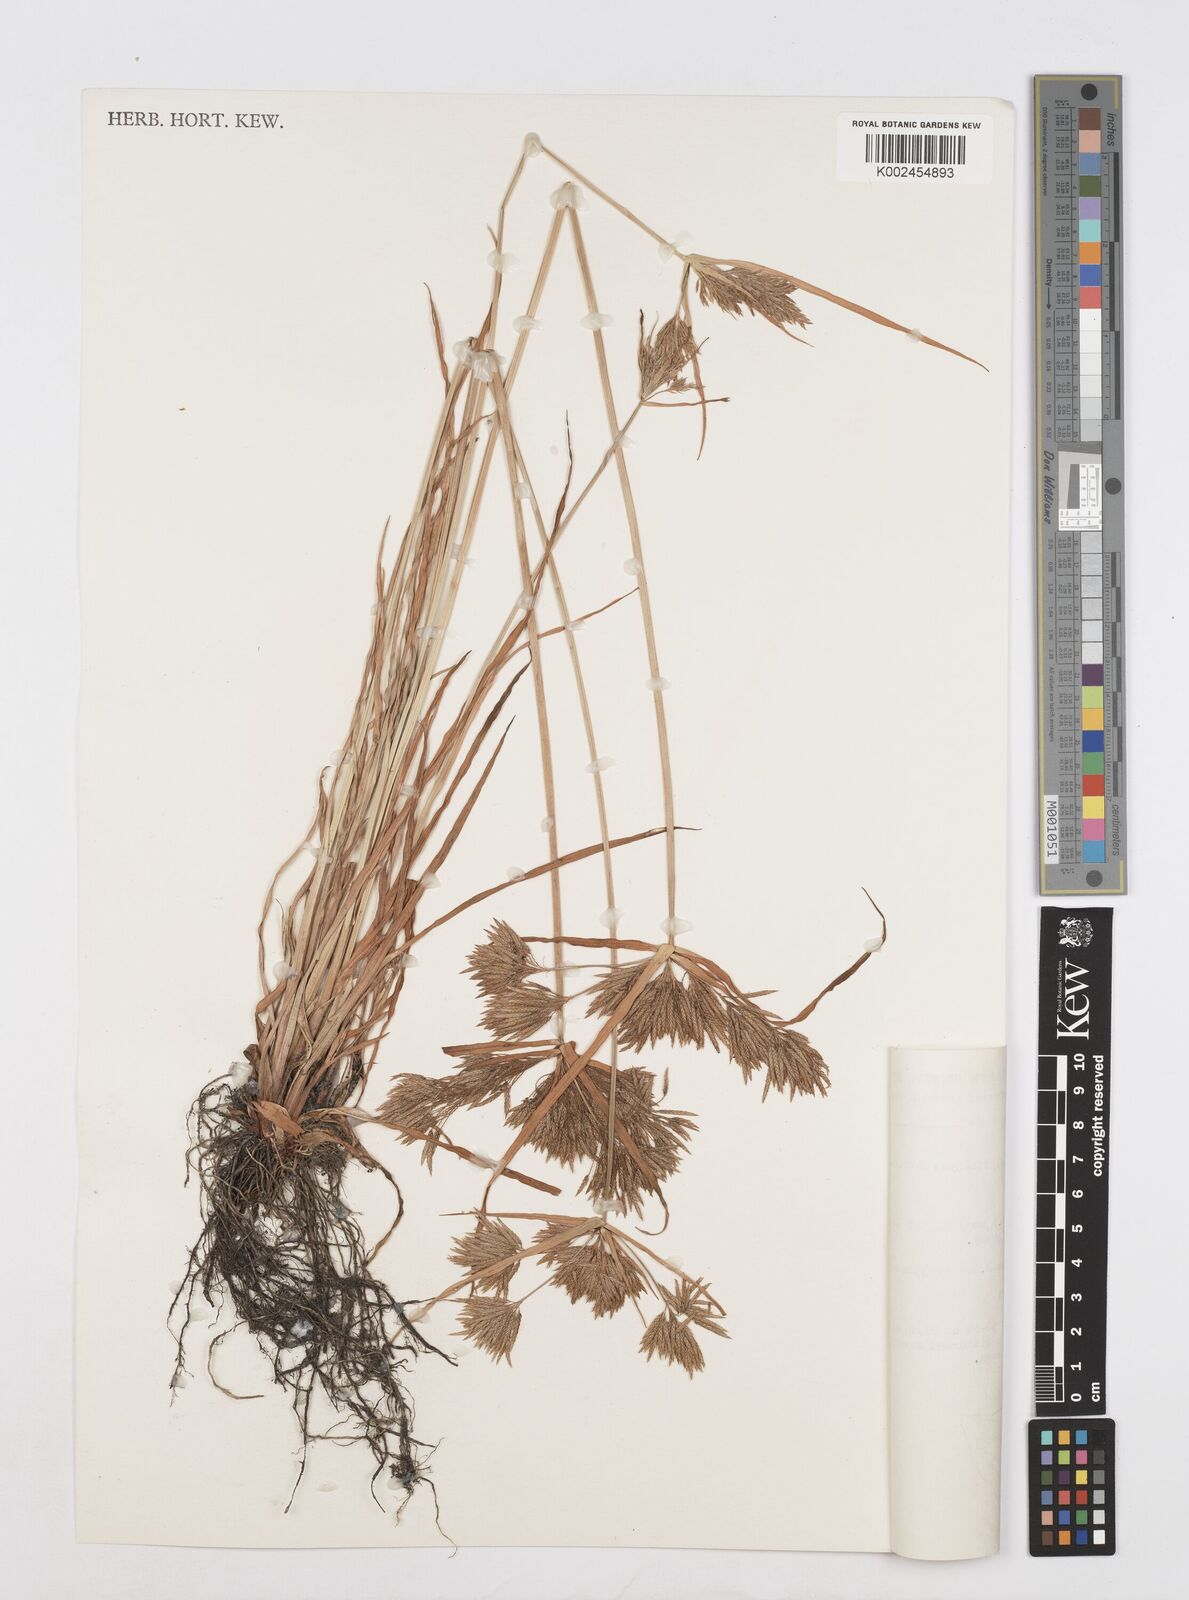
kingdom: Plantae
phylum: Tracheophyta
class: Liliopsida
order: Poales
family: Cyperaceae
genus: Cyperus
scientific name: Cyperus polystachyos
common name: Bunchy flat sedge
